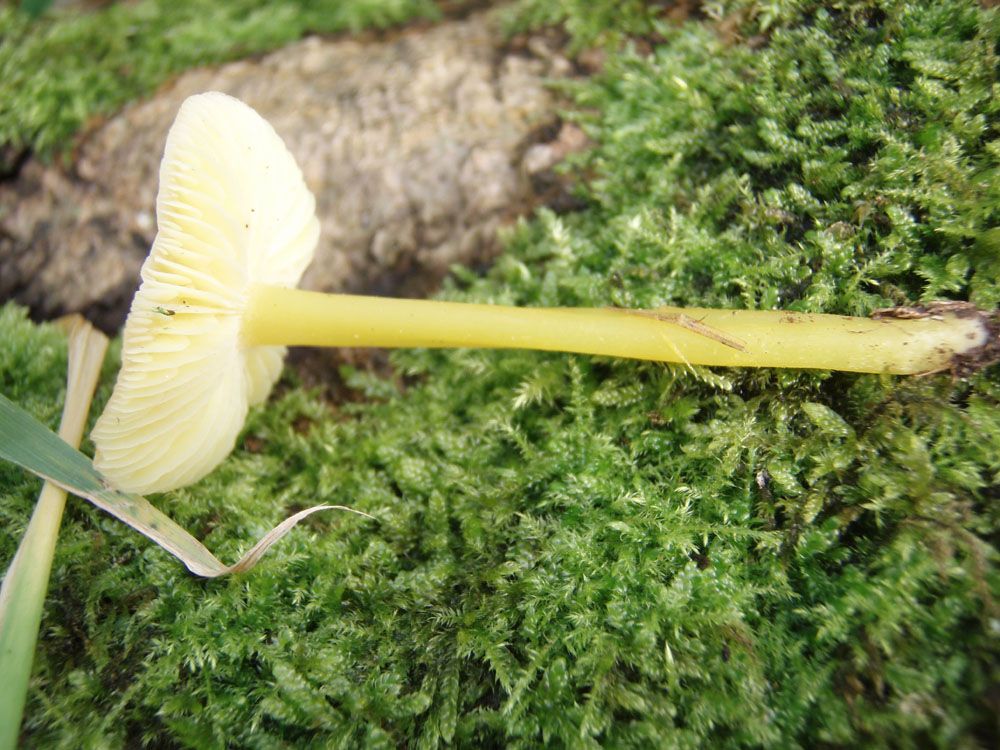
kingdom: Fungi
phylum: Basidiomycota
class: Agaricomycetes
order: Agaricales
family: Hygrophoraceae
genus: Hygrocybe
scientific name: Hygrocybe chlorophana
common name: gul vokshat
